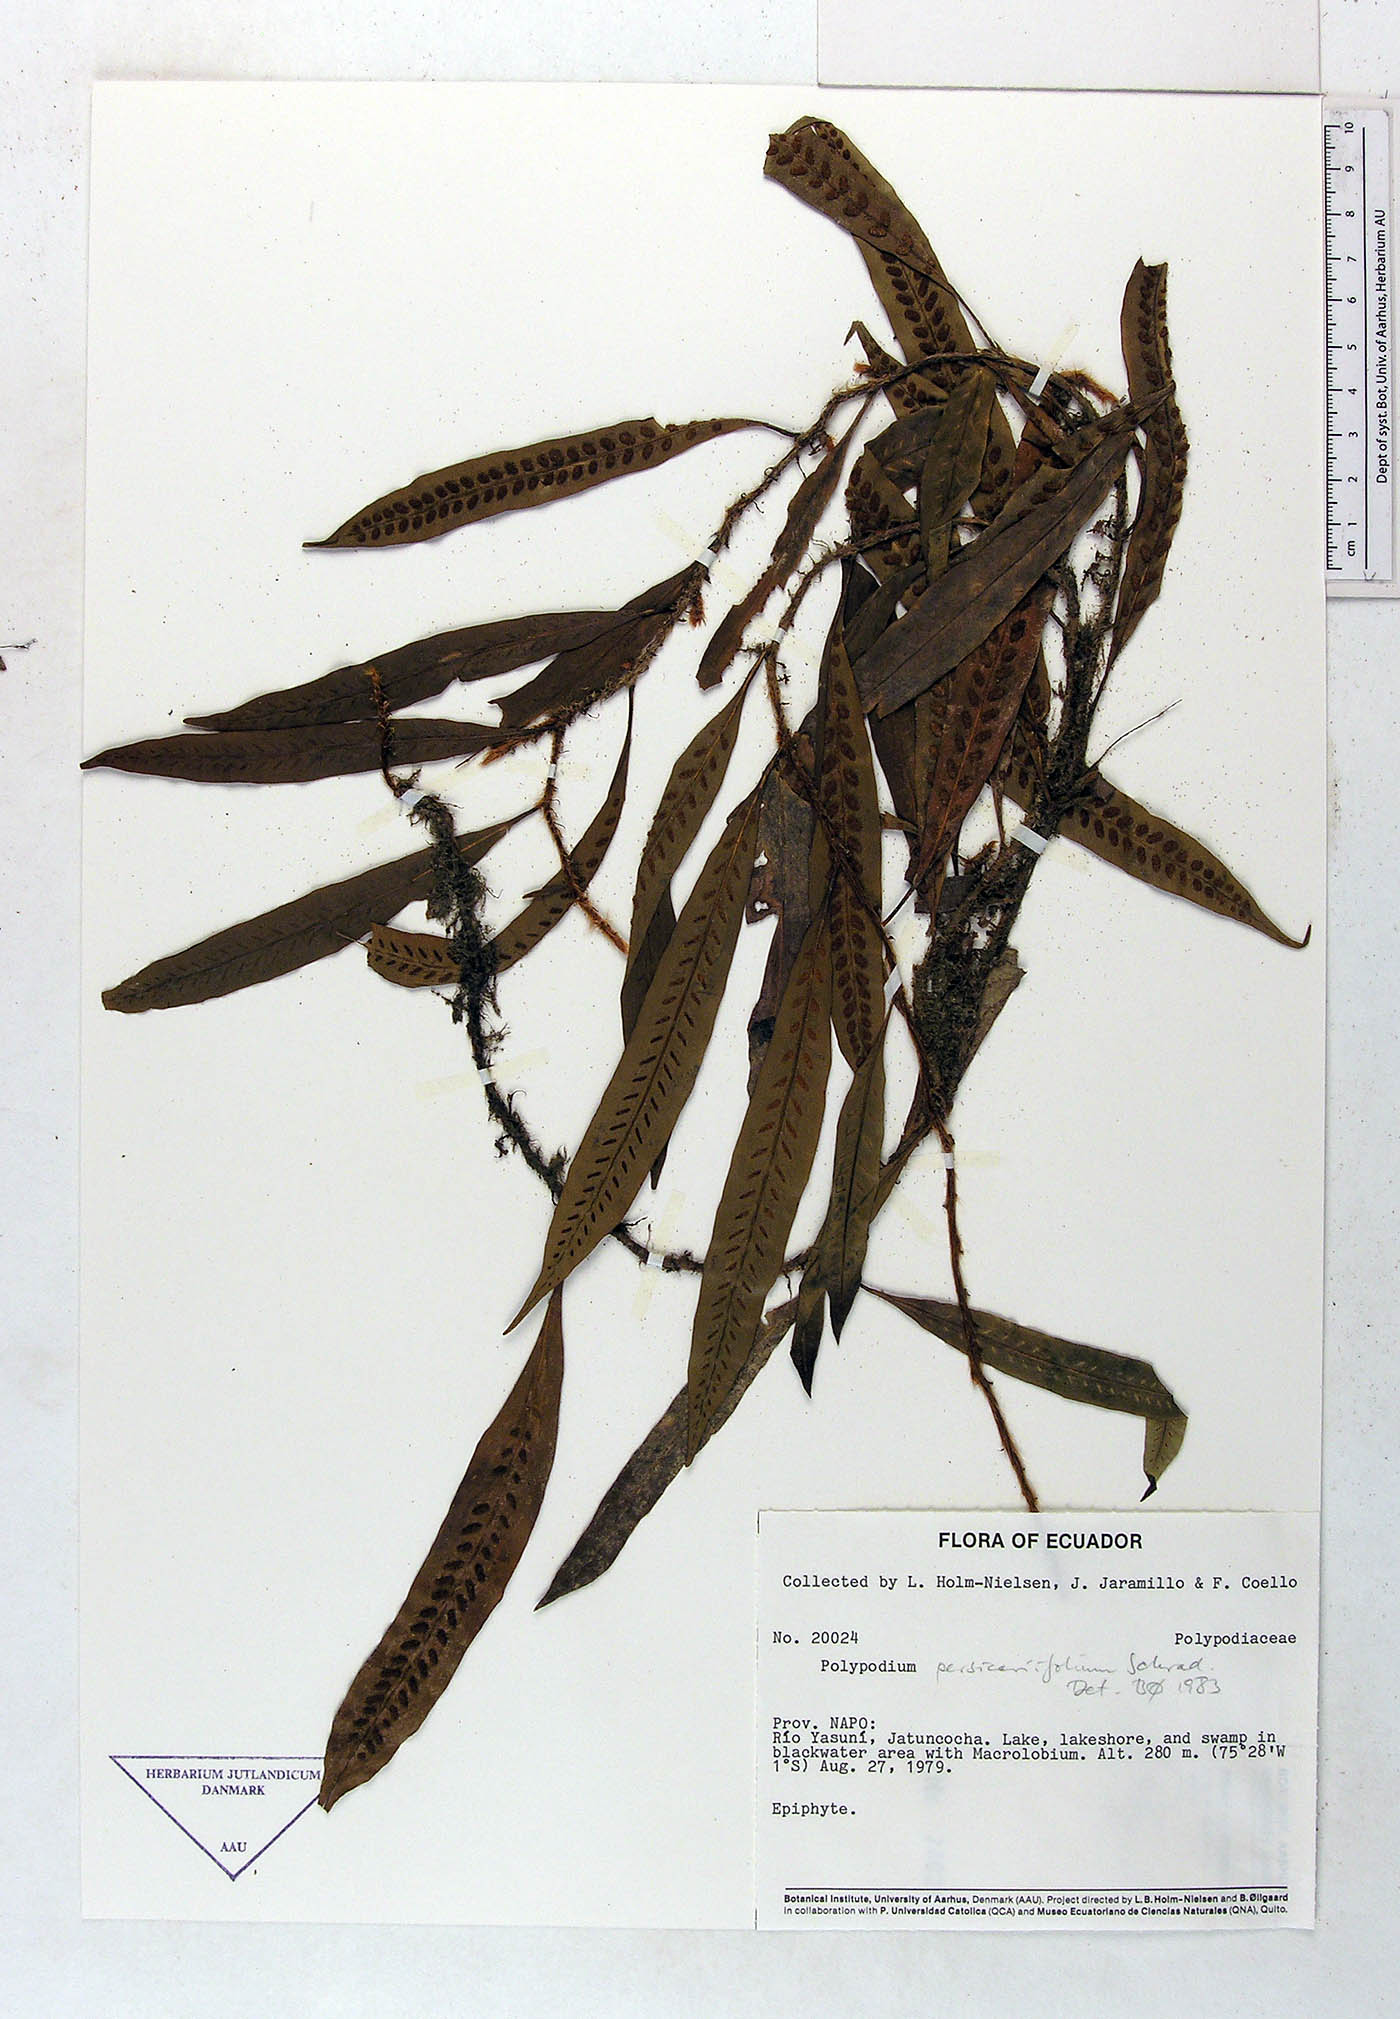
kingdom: Plantae
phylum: Tracheophyta
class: Polypodiopsida
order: Polypodiales
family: Polypodiaceae
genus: Microgramma
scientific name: Microgramma persicariifolia
